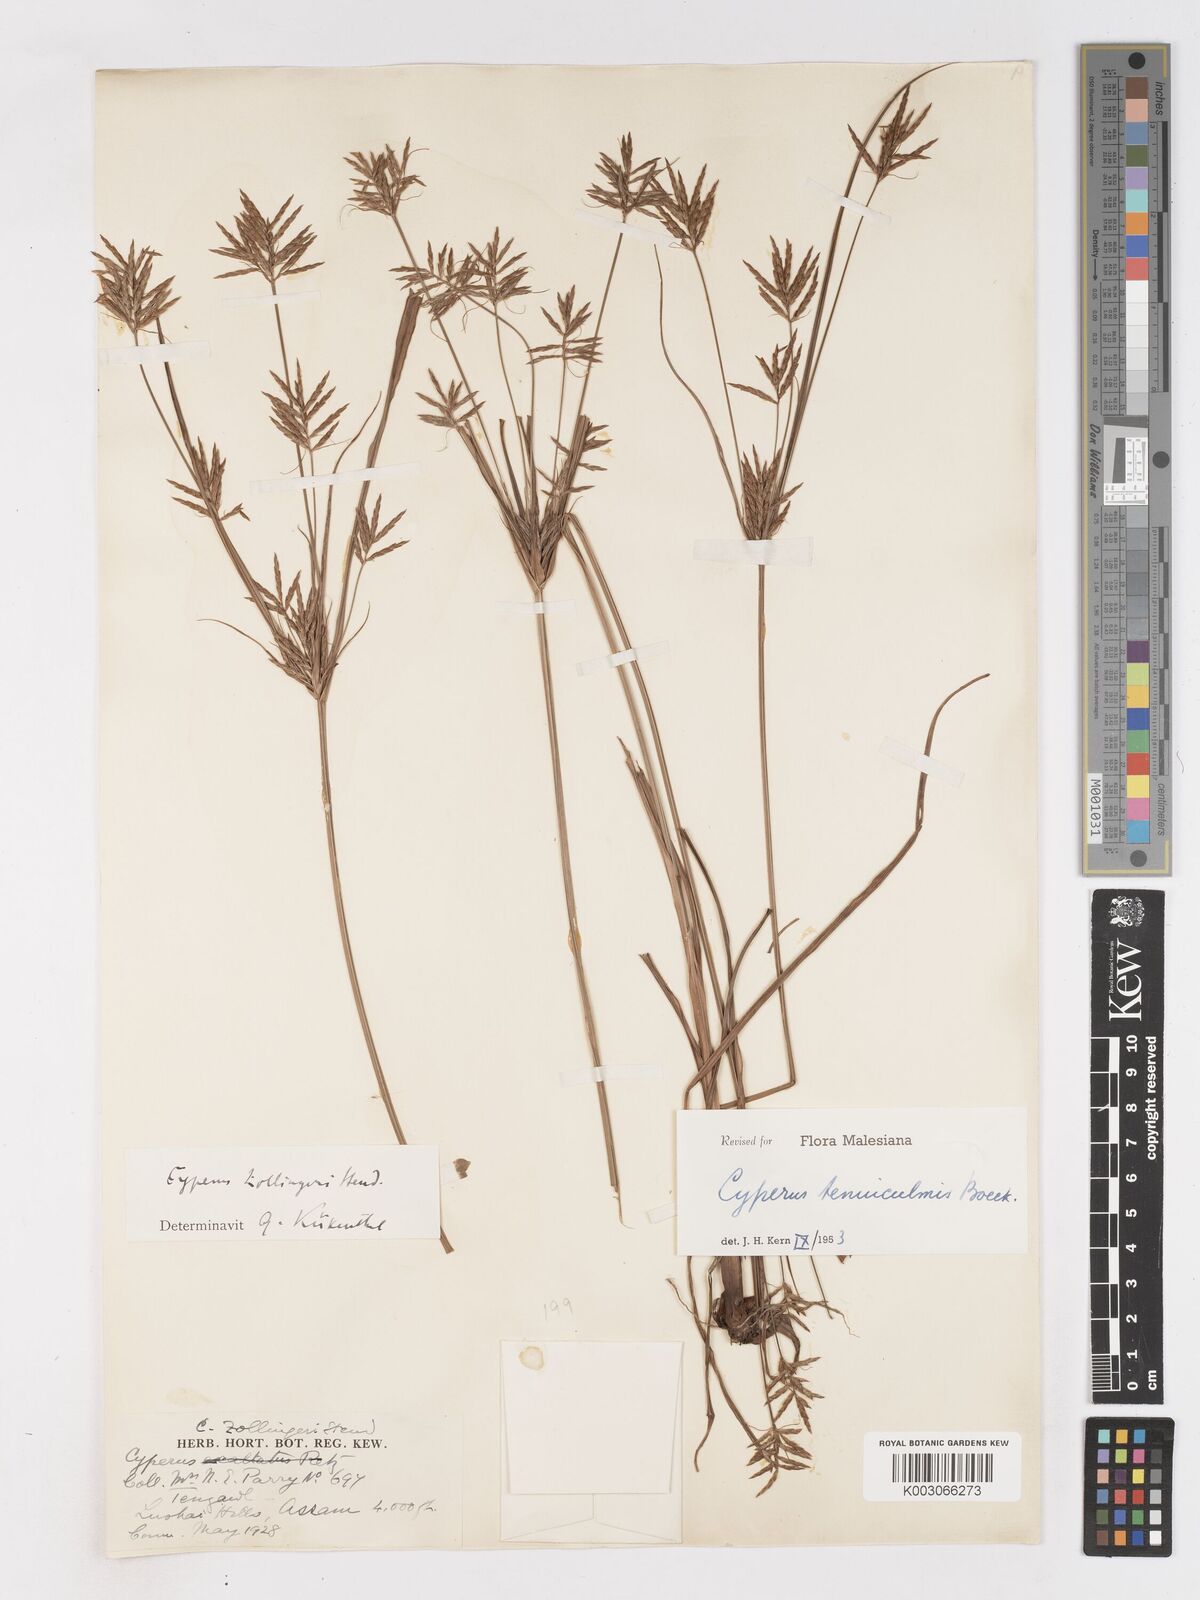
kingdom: Plantae
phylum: Tracheophyta
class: Liliopsida
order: Poales
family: Cyperaceae
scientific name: Cyperaceae
